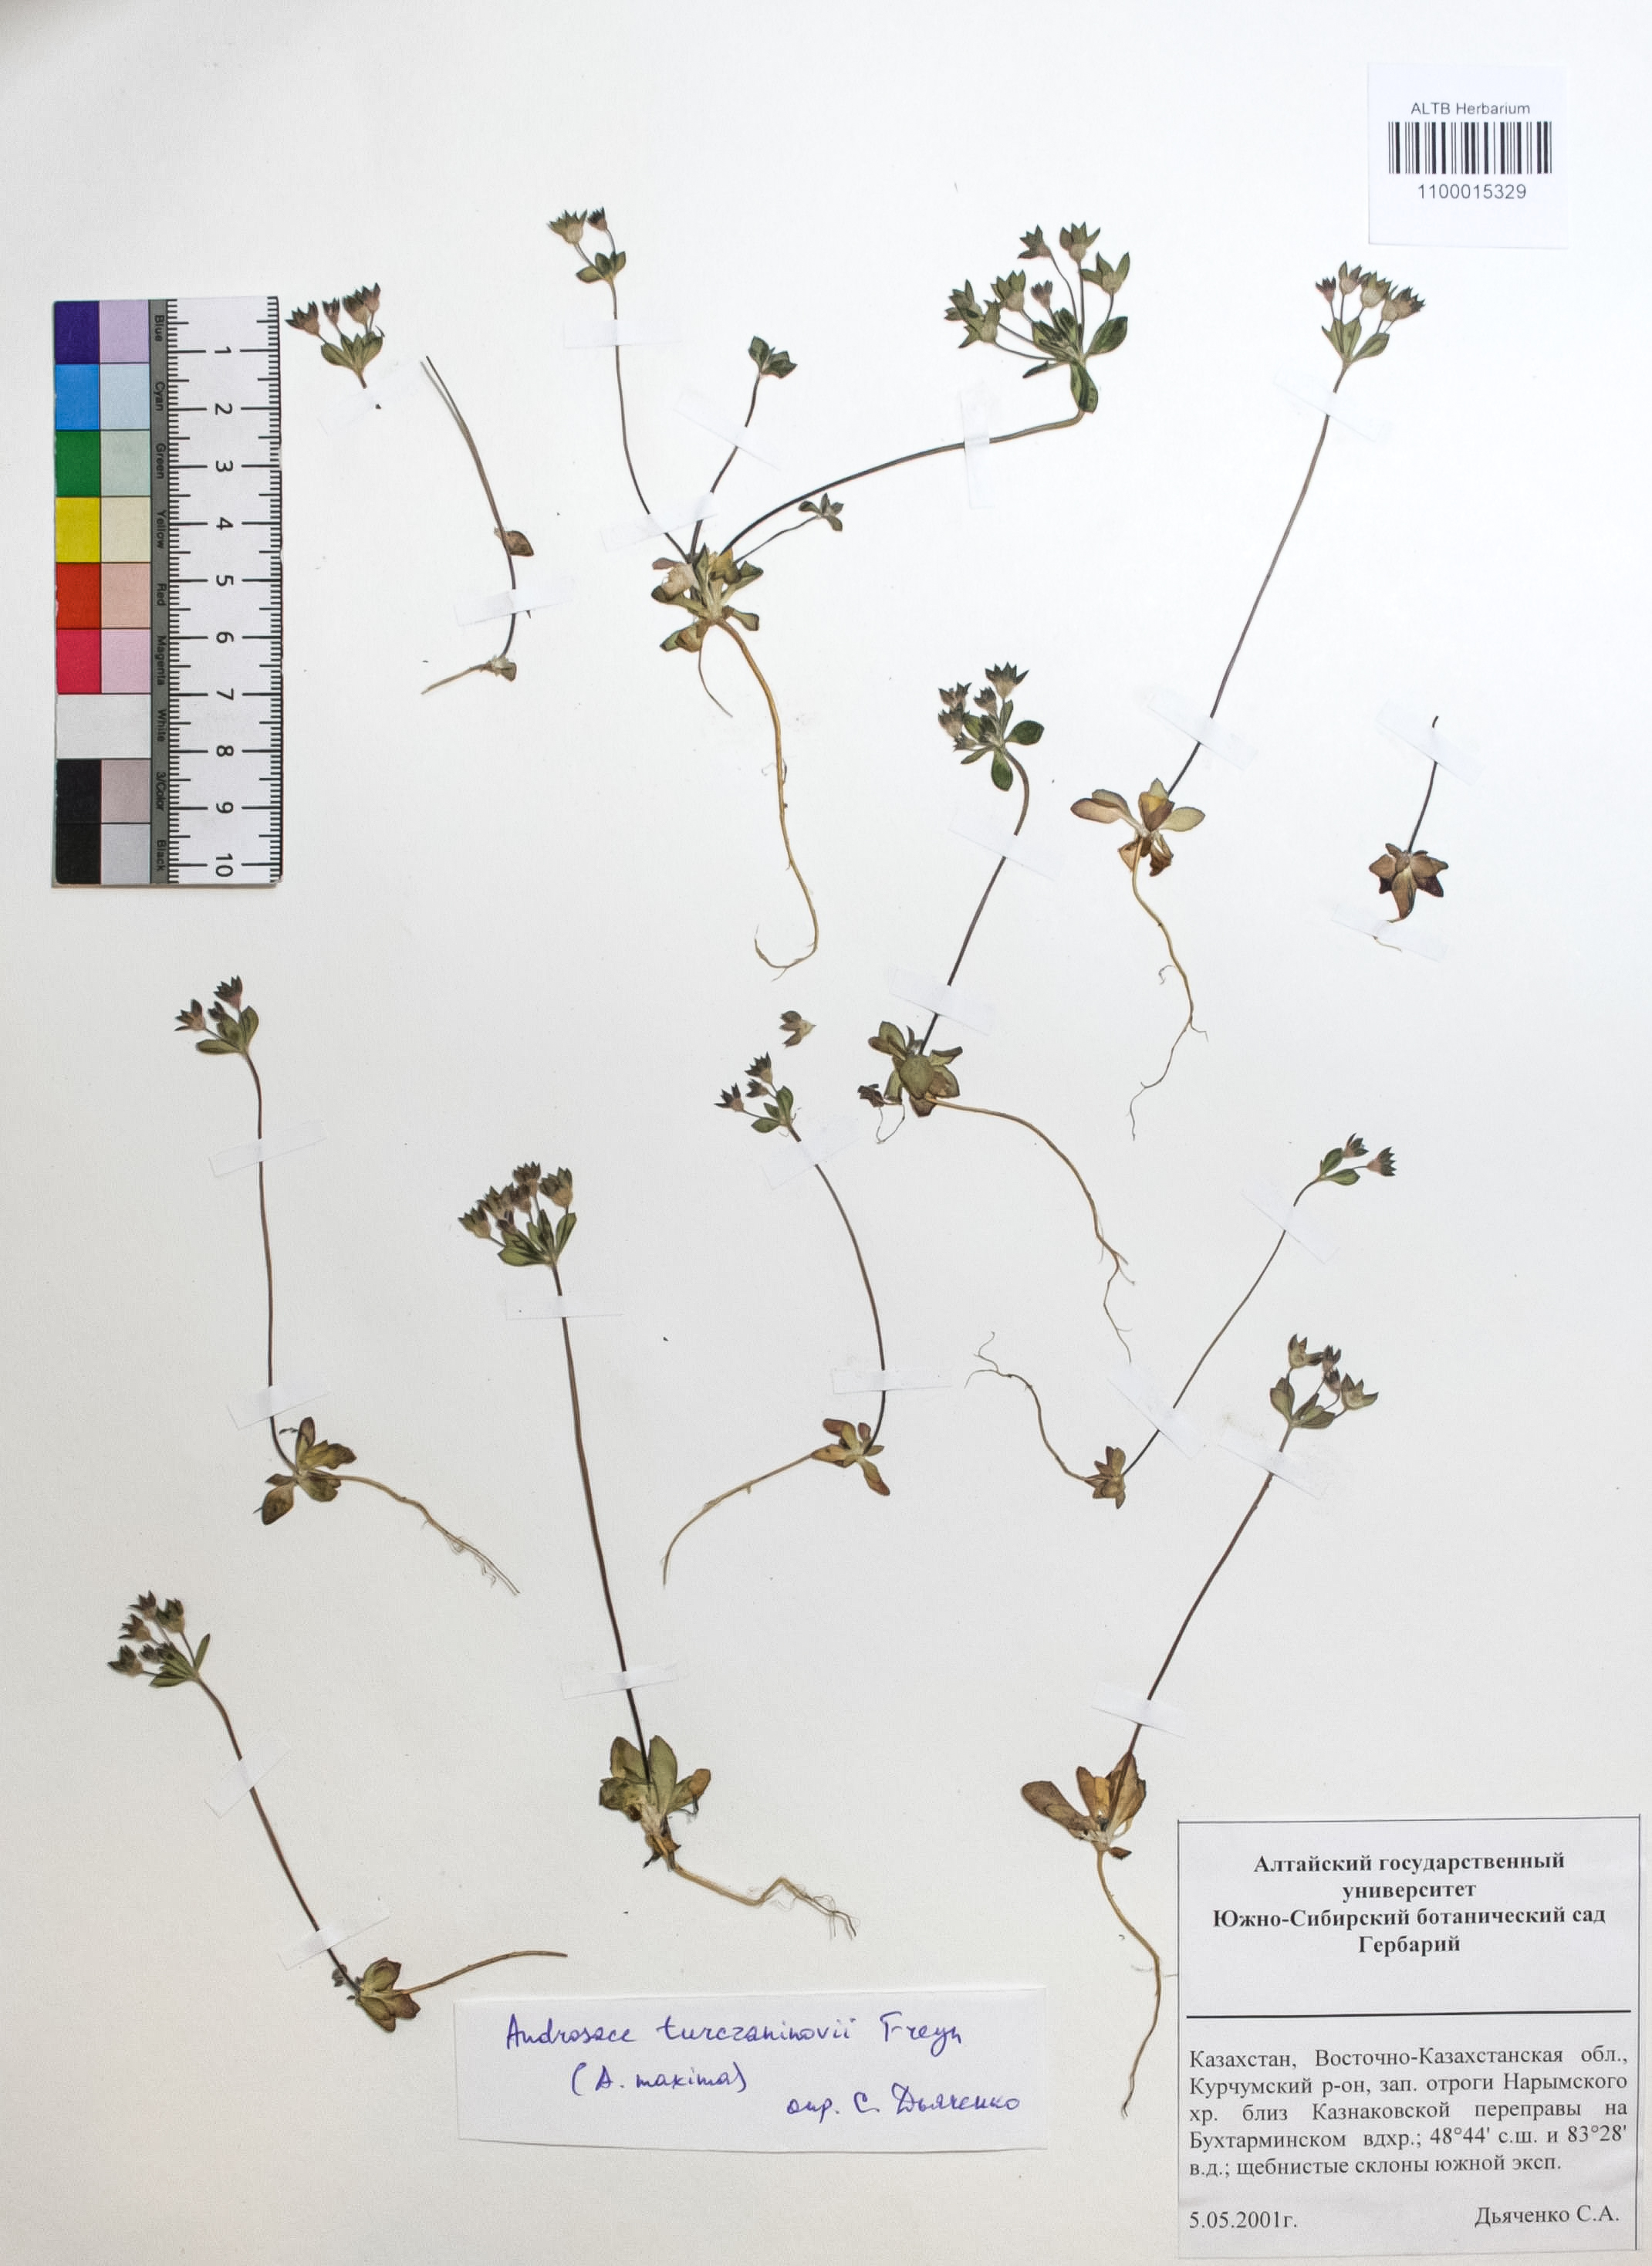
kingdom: Plantae
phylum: Tracheophyta
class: Magnoliopsida
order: Ericales
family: Primulaceae
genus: Androsace
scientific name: Androsace maxima
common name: Annual androsace
